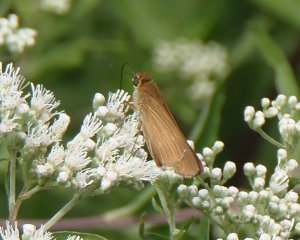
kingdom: Animalia
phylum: Arthropoda
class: Insecta
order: Lepidoptera
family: Hesperiidae
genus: Panoquina
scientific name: Panoquina ocola
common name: Ocola Skipper
